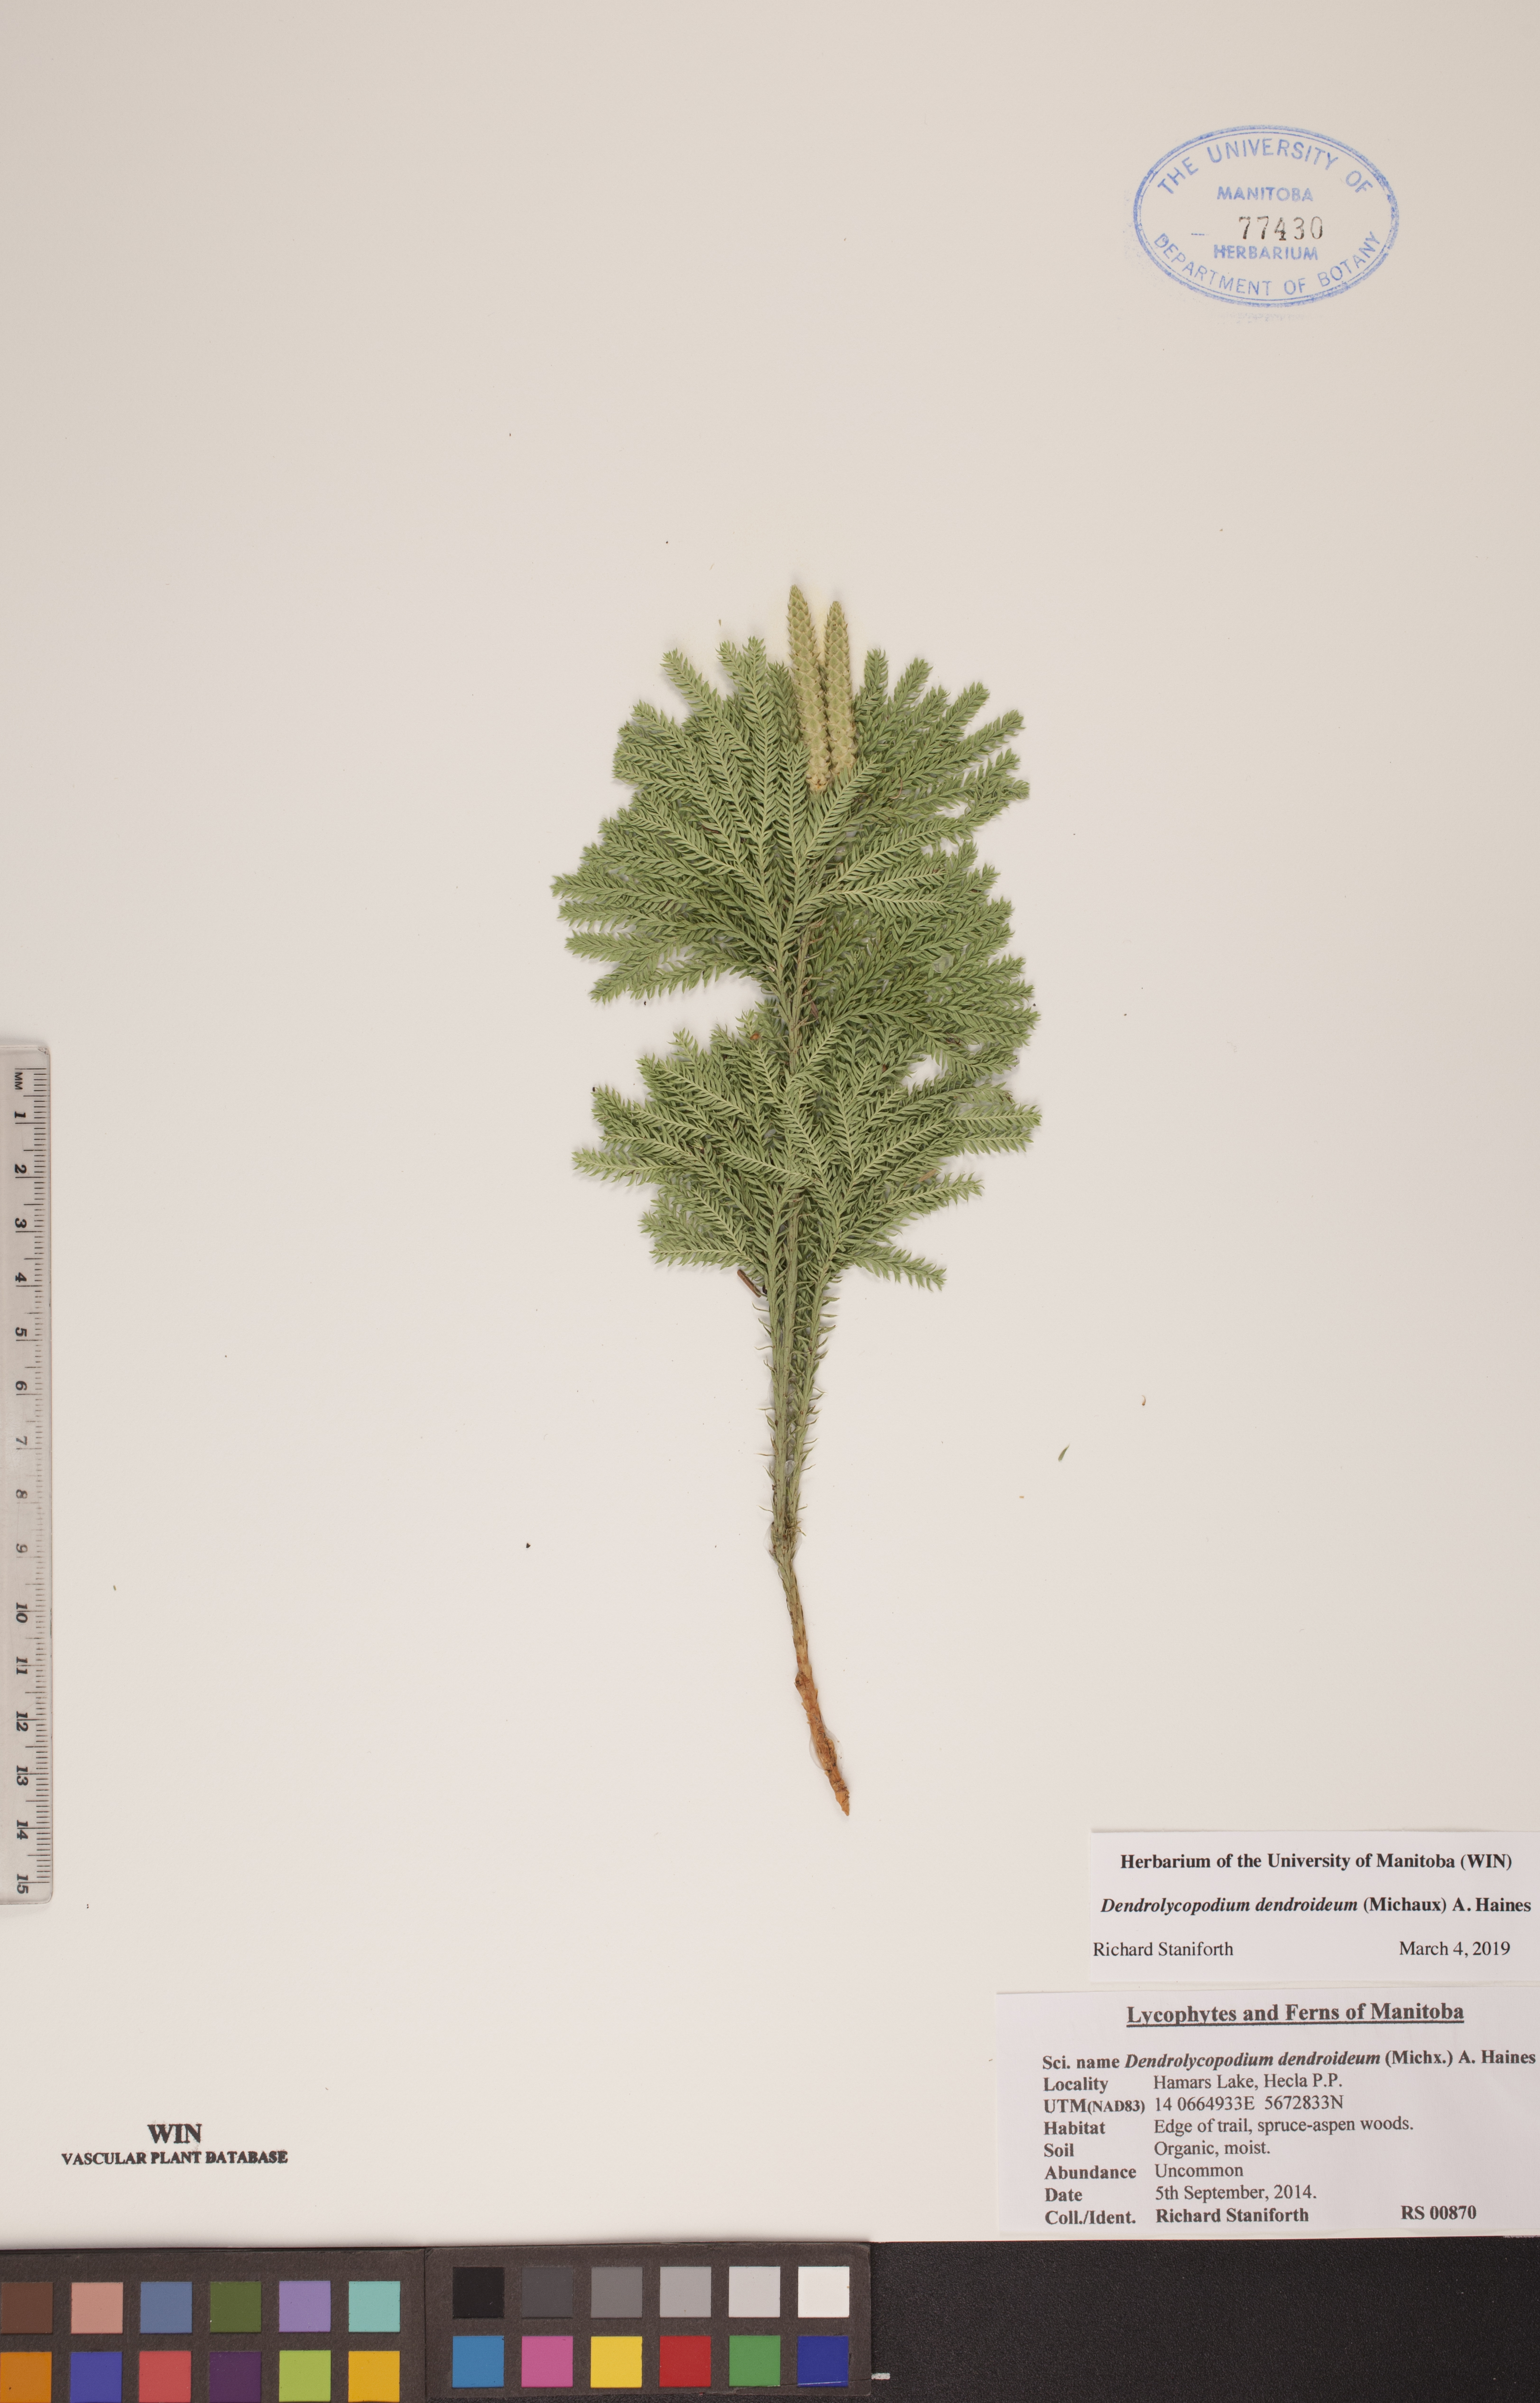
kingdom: Plantae
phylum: Tracheophyta
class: Lycopodiopsida
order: Lycopodiales
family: Lycopodiaceae
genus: Dendrolycopodium
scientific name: Dendrolycopodium dendroideum
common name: Northern tree-clubmoss
